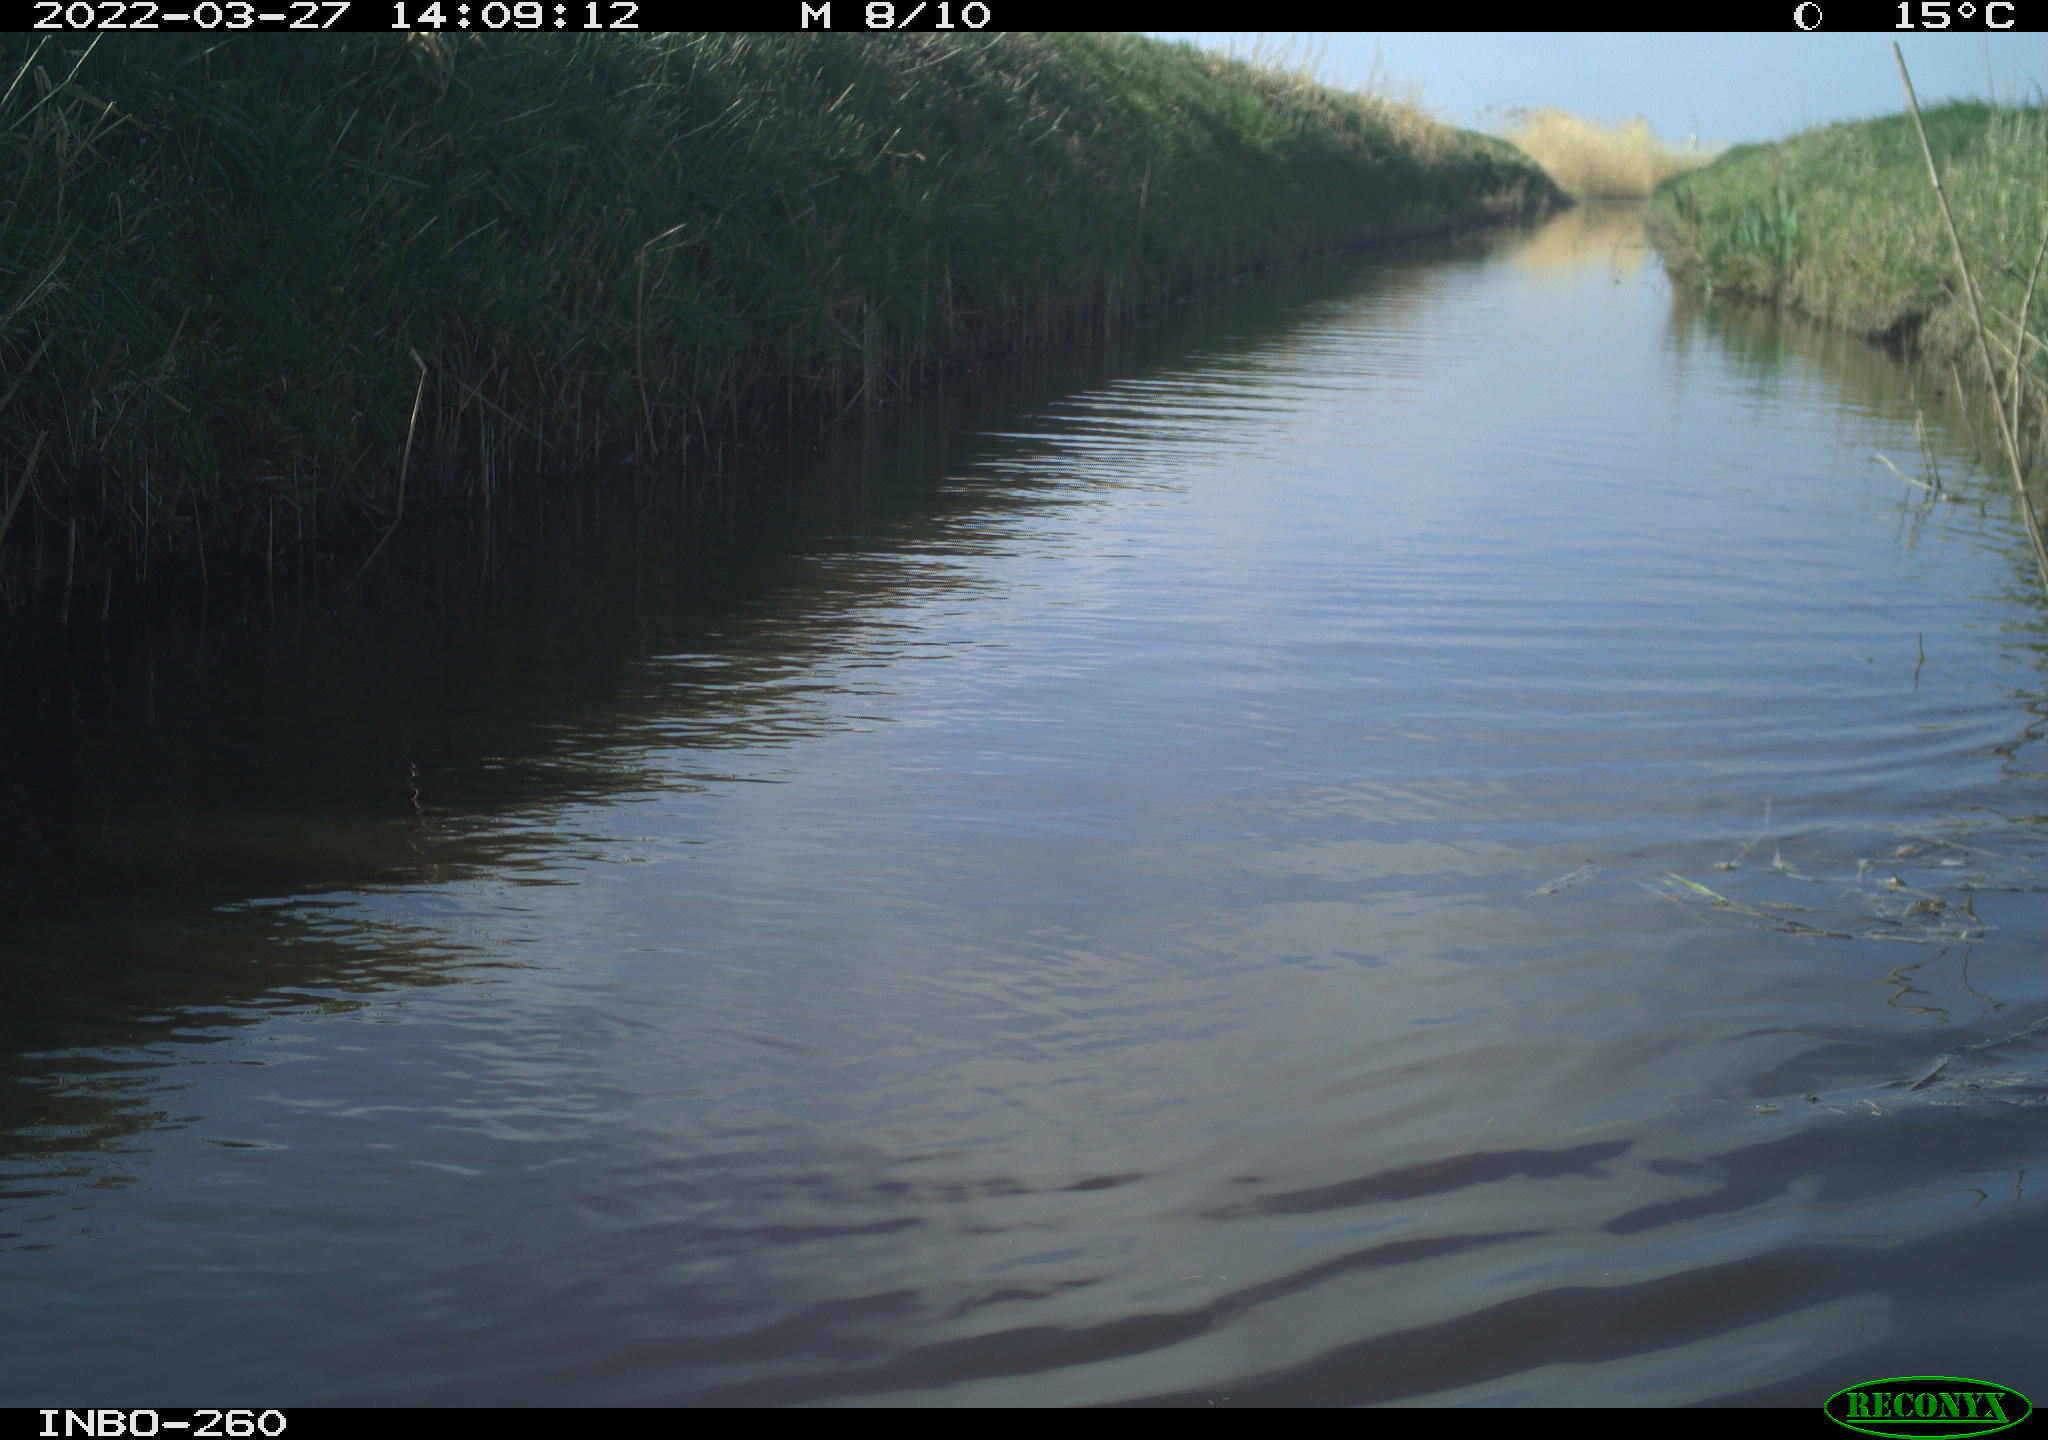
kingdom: Animalia
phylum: Chordata
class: Aves
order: Gruiformes
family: Rallidae
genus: Fulica
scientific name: Fulica atra
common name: Eurasian coot
